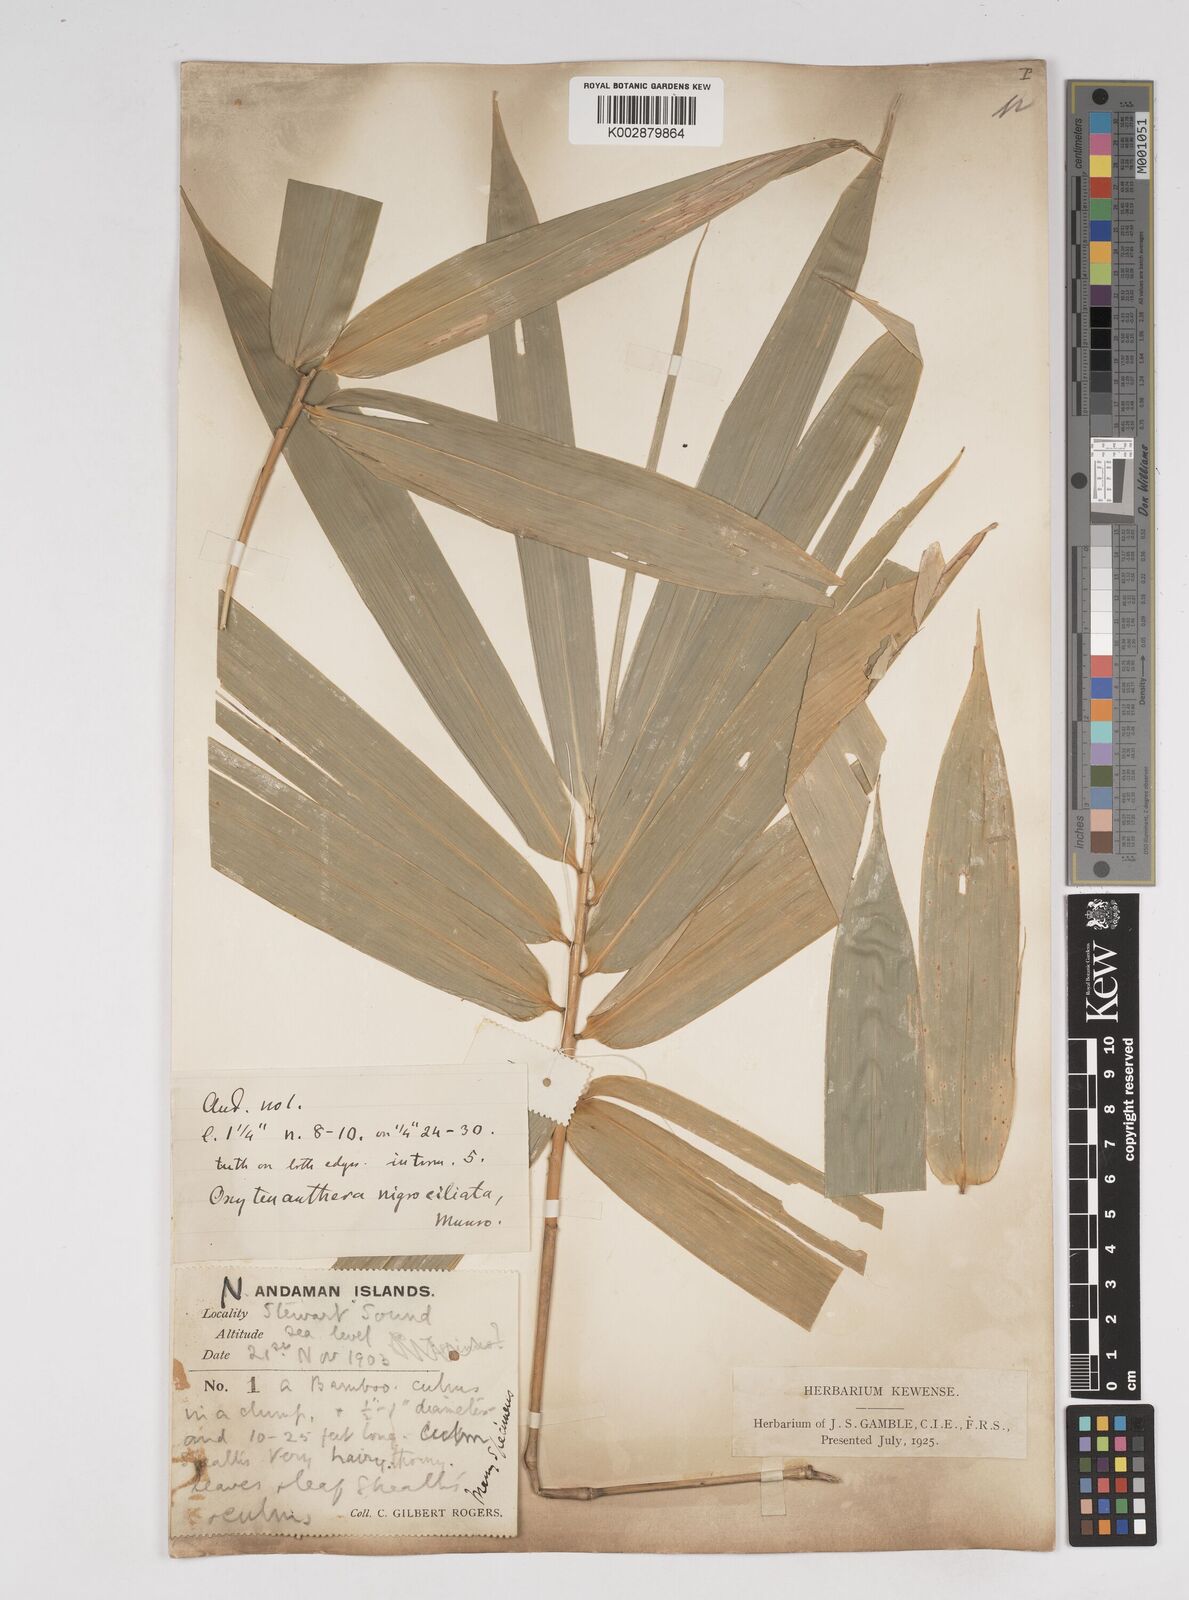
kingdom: Plantae
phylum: Tracheophyta
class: Liliopsida
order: Poales
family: Poaceae
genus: Gigantochloa
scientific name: Gigantochloa
